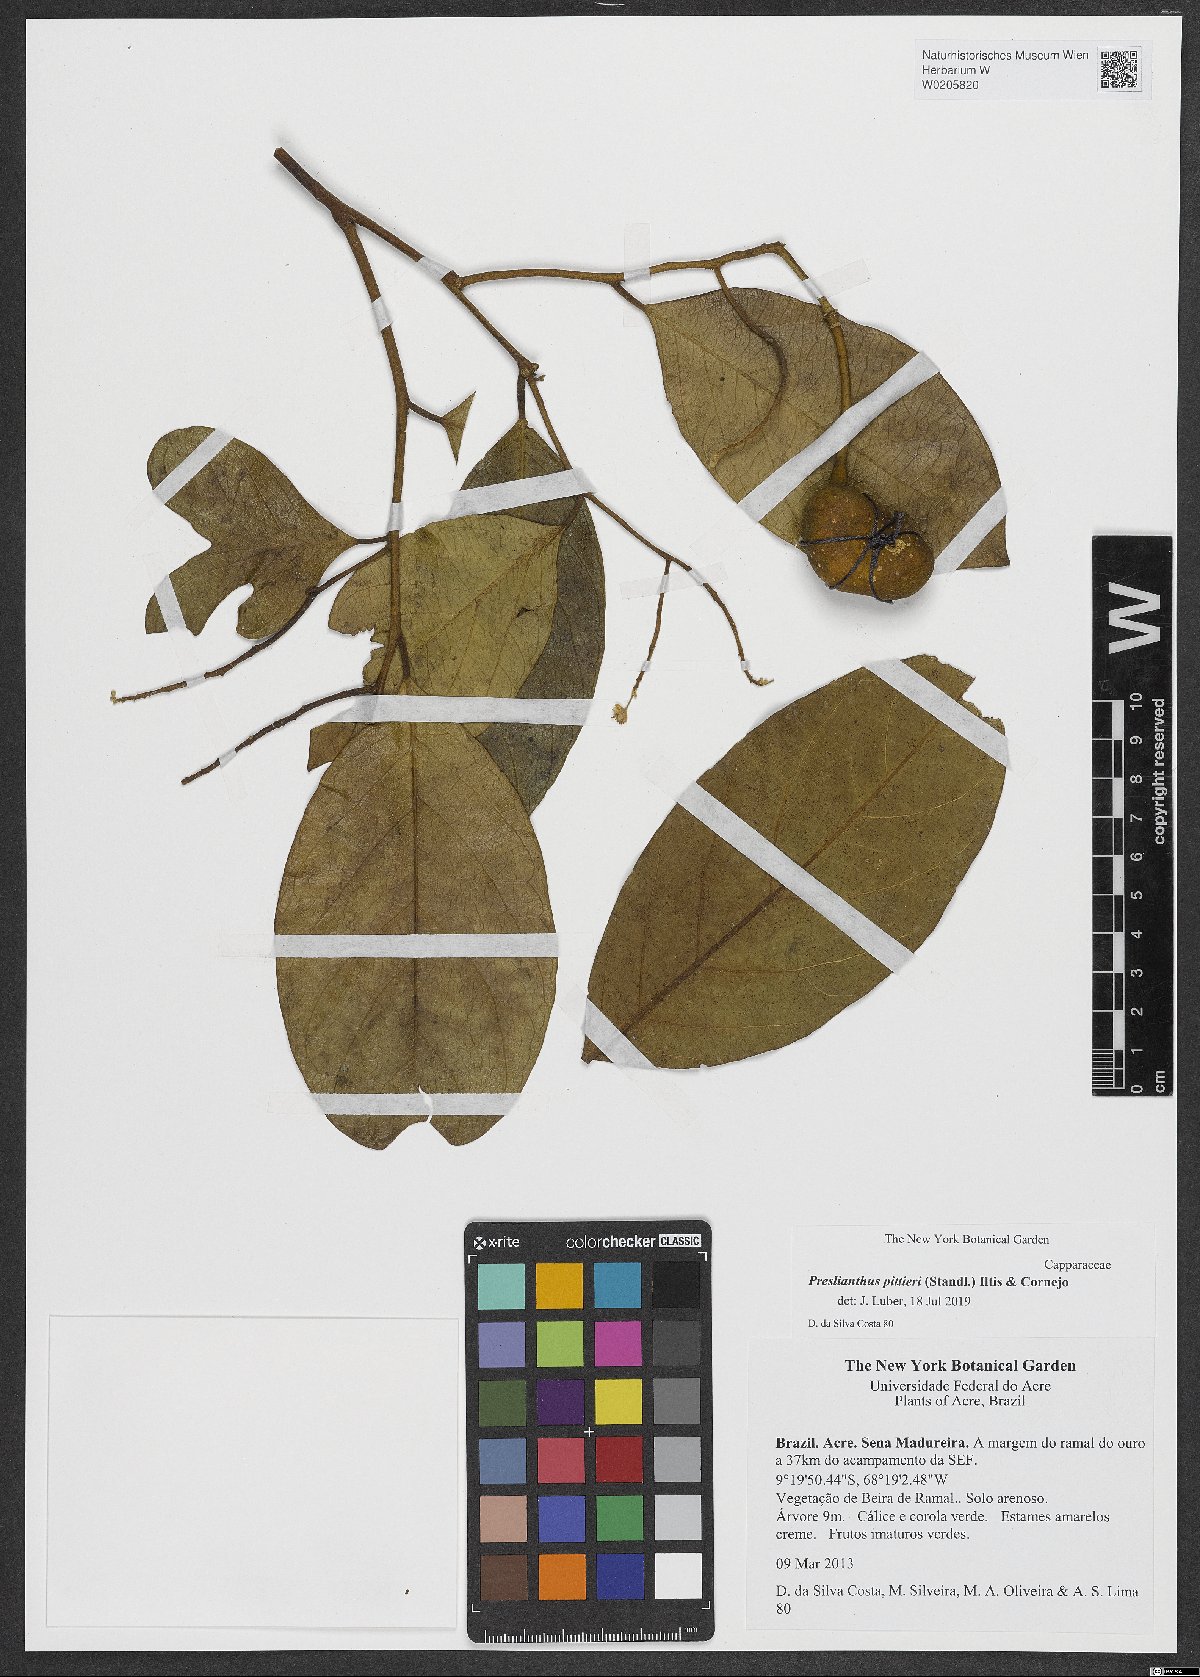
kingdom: Plantae
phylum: Tracheophyta
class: Magnoliopsida
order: Brassicales
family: Capparaceae
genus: Preslianthus
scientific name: Preslianthus pittieri
